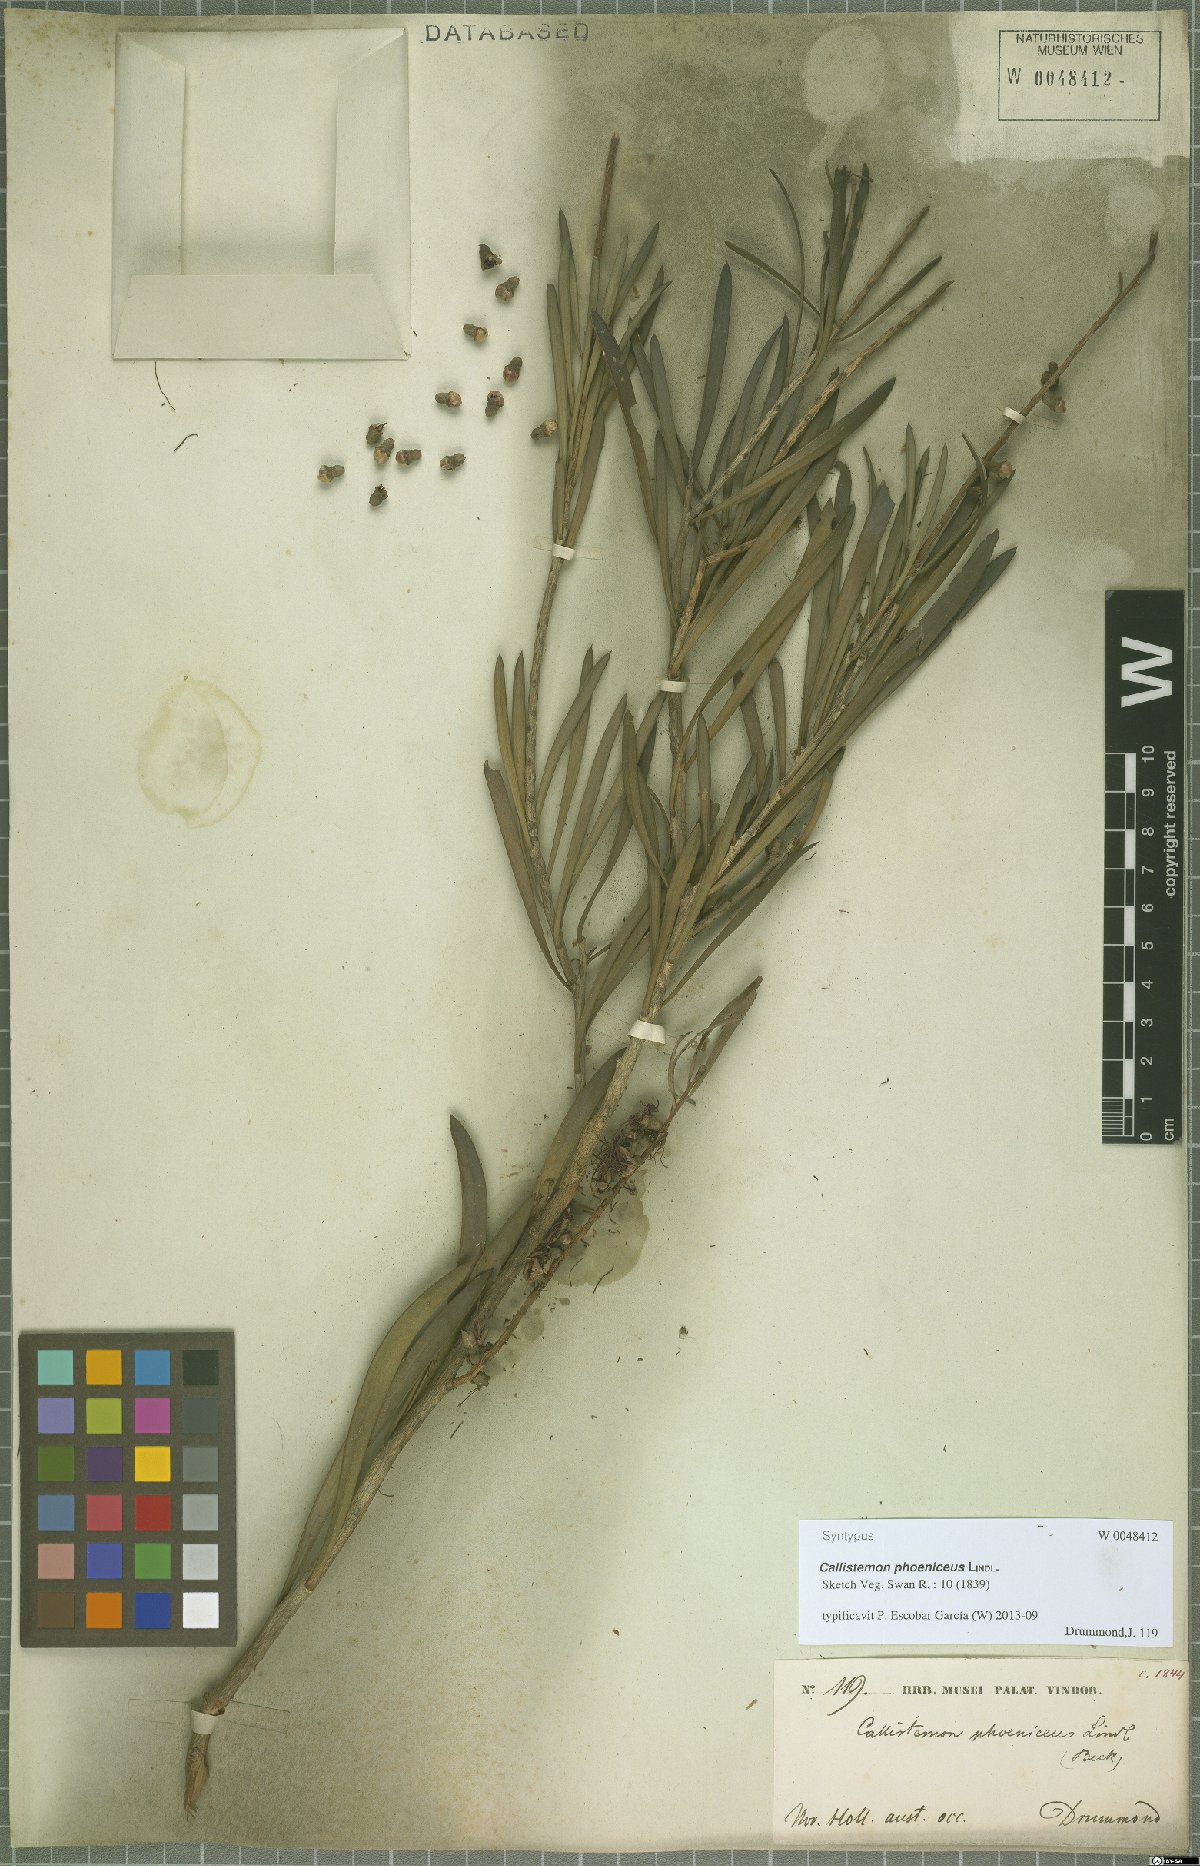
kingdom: Plantae
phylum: Tracheophyta
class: Magnoliopsida
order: Myrtales
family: Myrtaceae
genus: Callistemon
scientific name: Callistemon phoeniceus
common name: Lesser bottlebrush
